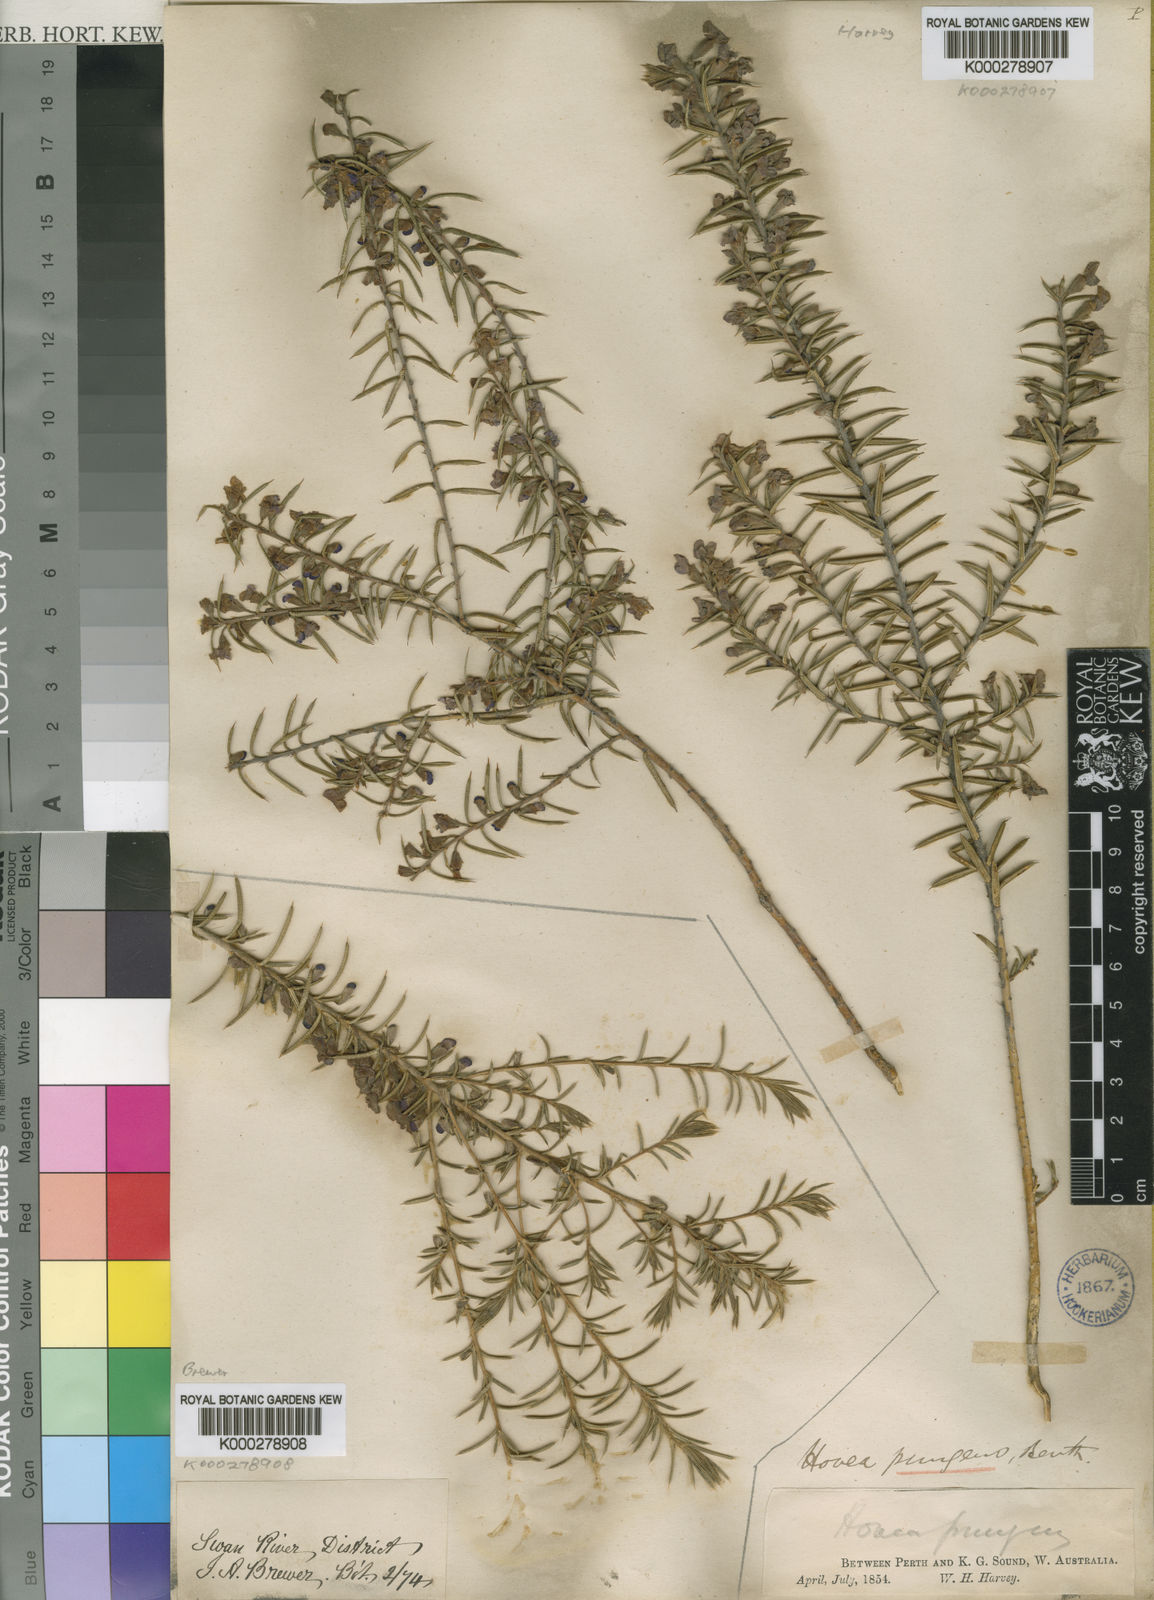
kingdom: Plantae
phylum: Tracheophyta
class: Magnoliopsida
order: Fabales
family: Fabaceae
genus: Hovea
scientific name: Hovea pungens
